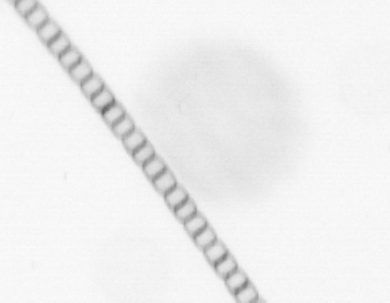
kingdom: Chromista
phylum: Ochrophyta
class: Bacillariophyceae
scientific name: Bacillariophyceae
